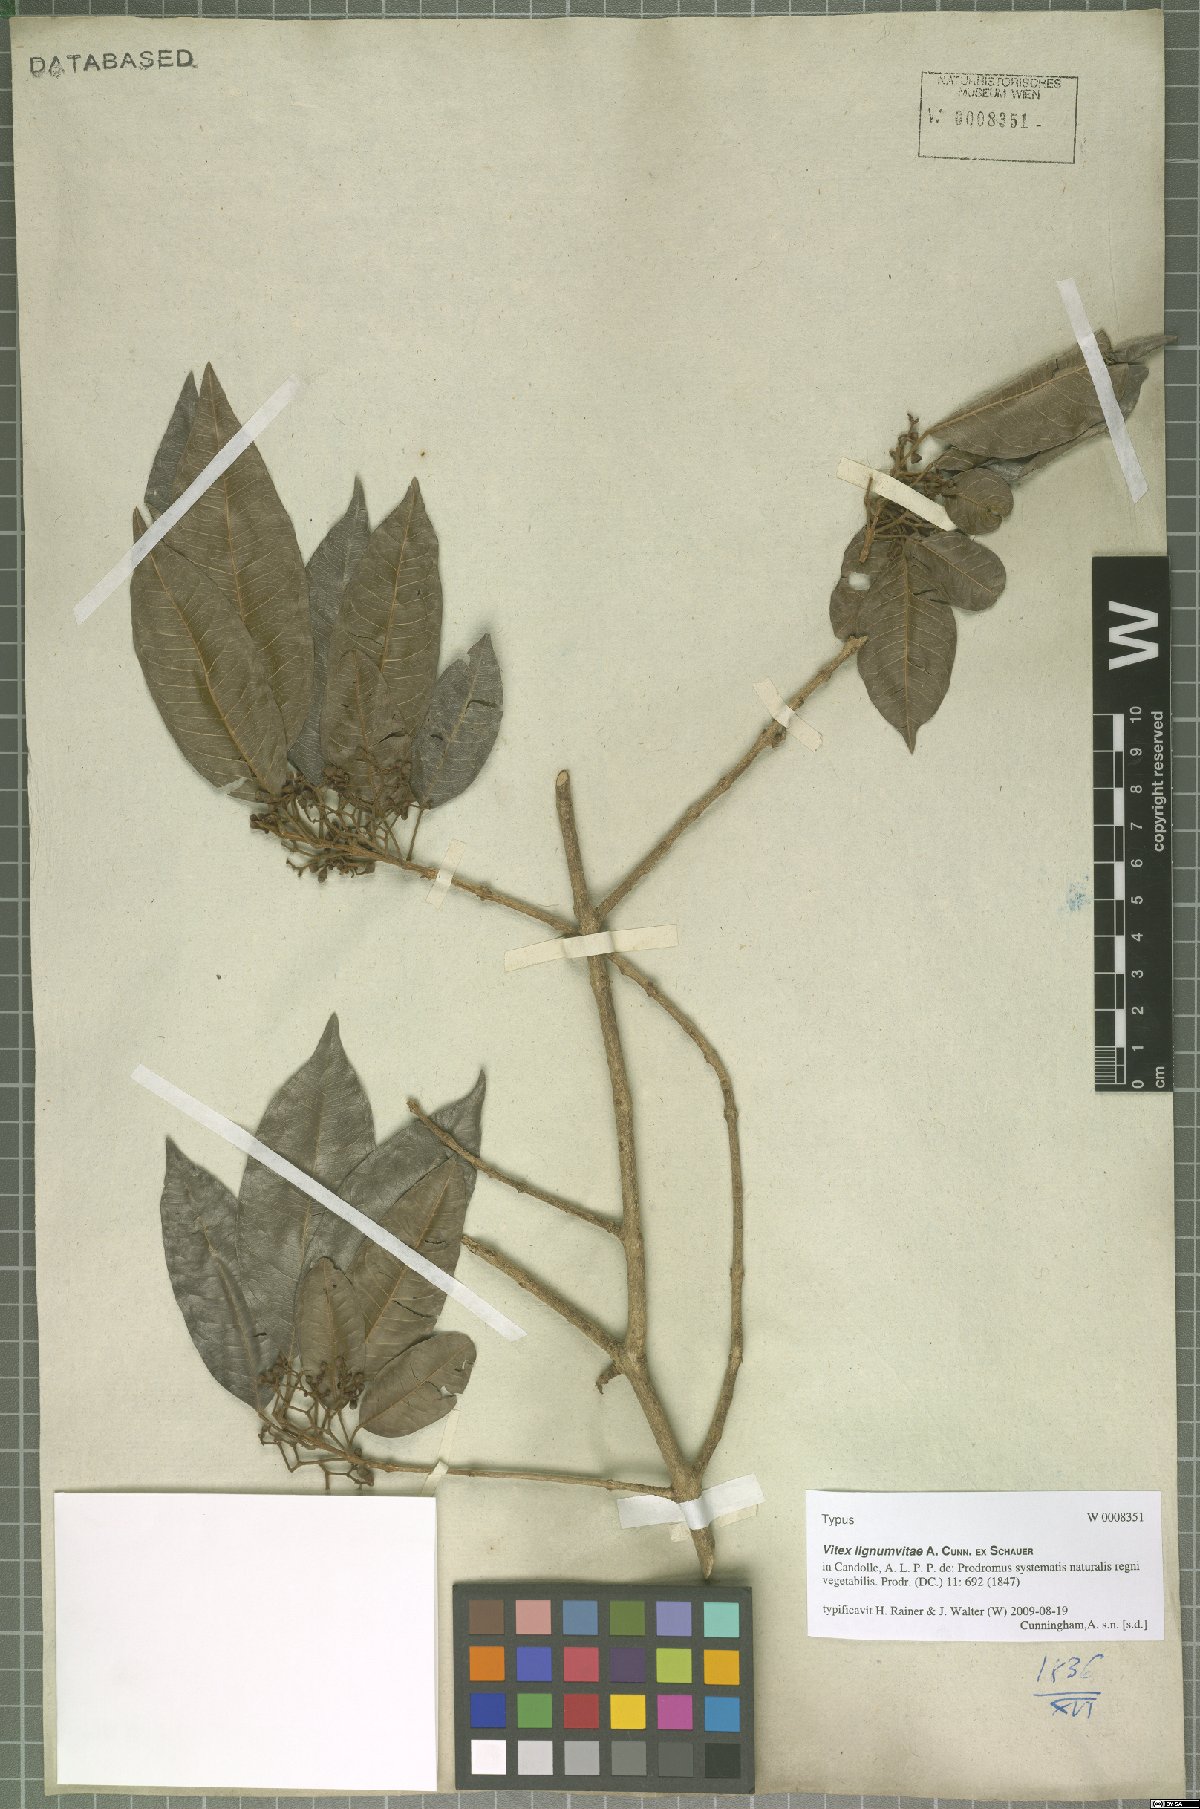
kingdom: Plantae
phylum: Tracheophyta
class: Magnoliopsida
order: Lamiales
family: Lamiaceae
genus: Vitex
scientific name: Vitex lignum-vitae
